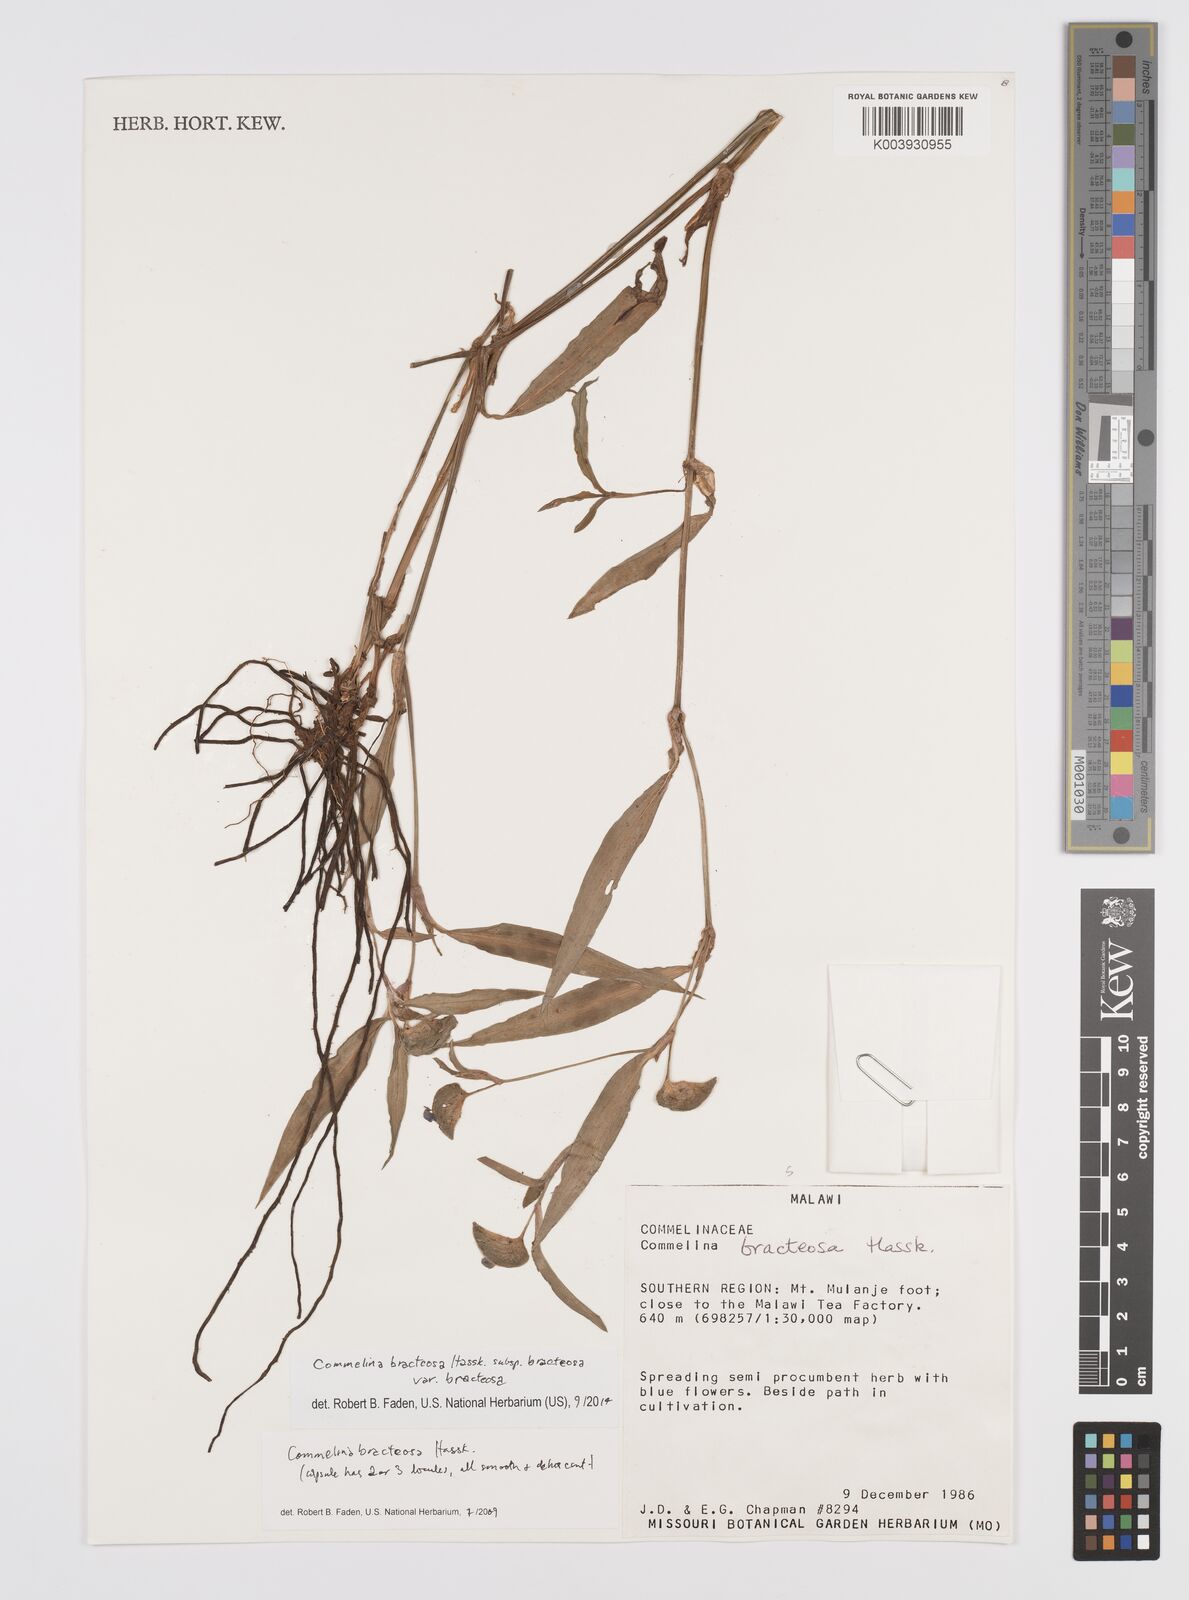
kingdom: Plantae
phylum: Tracheophyta
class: Liliopsida
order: Commelinales
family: Commelinaceae
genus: Commelina
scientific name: Commelina bracteosa
